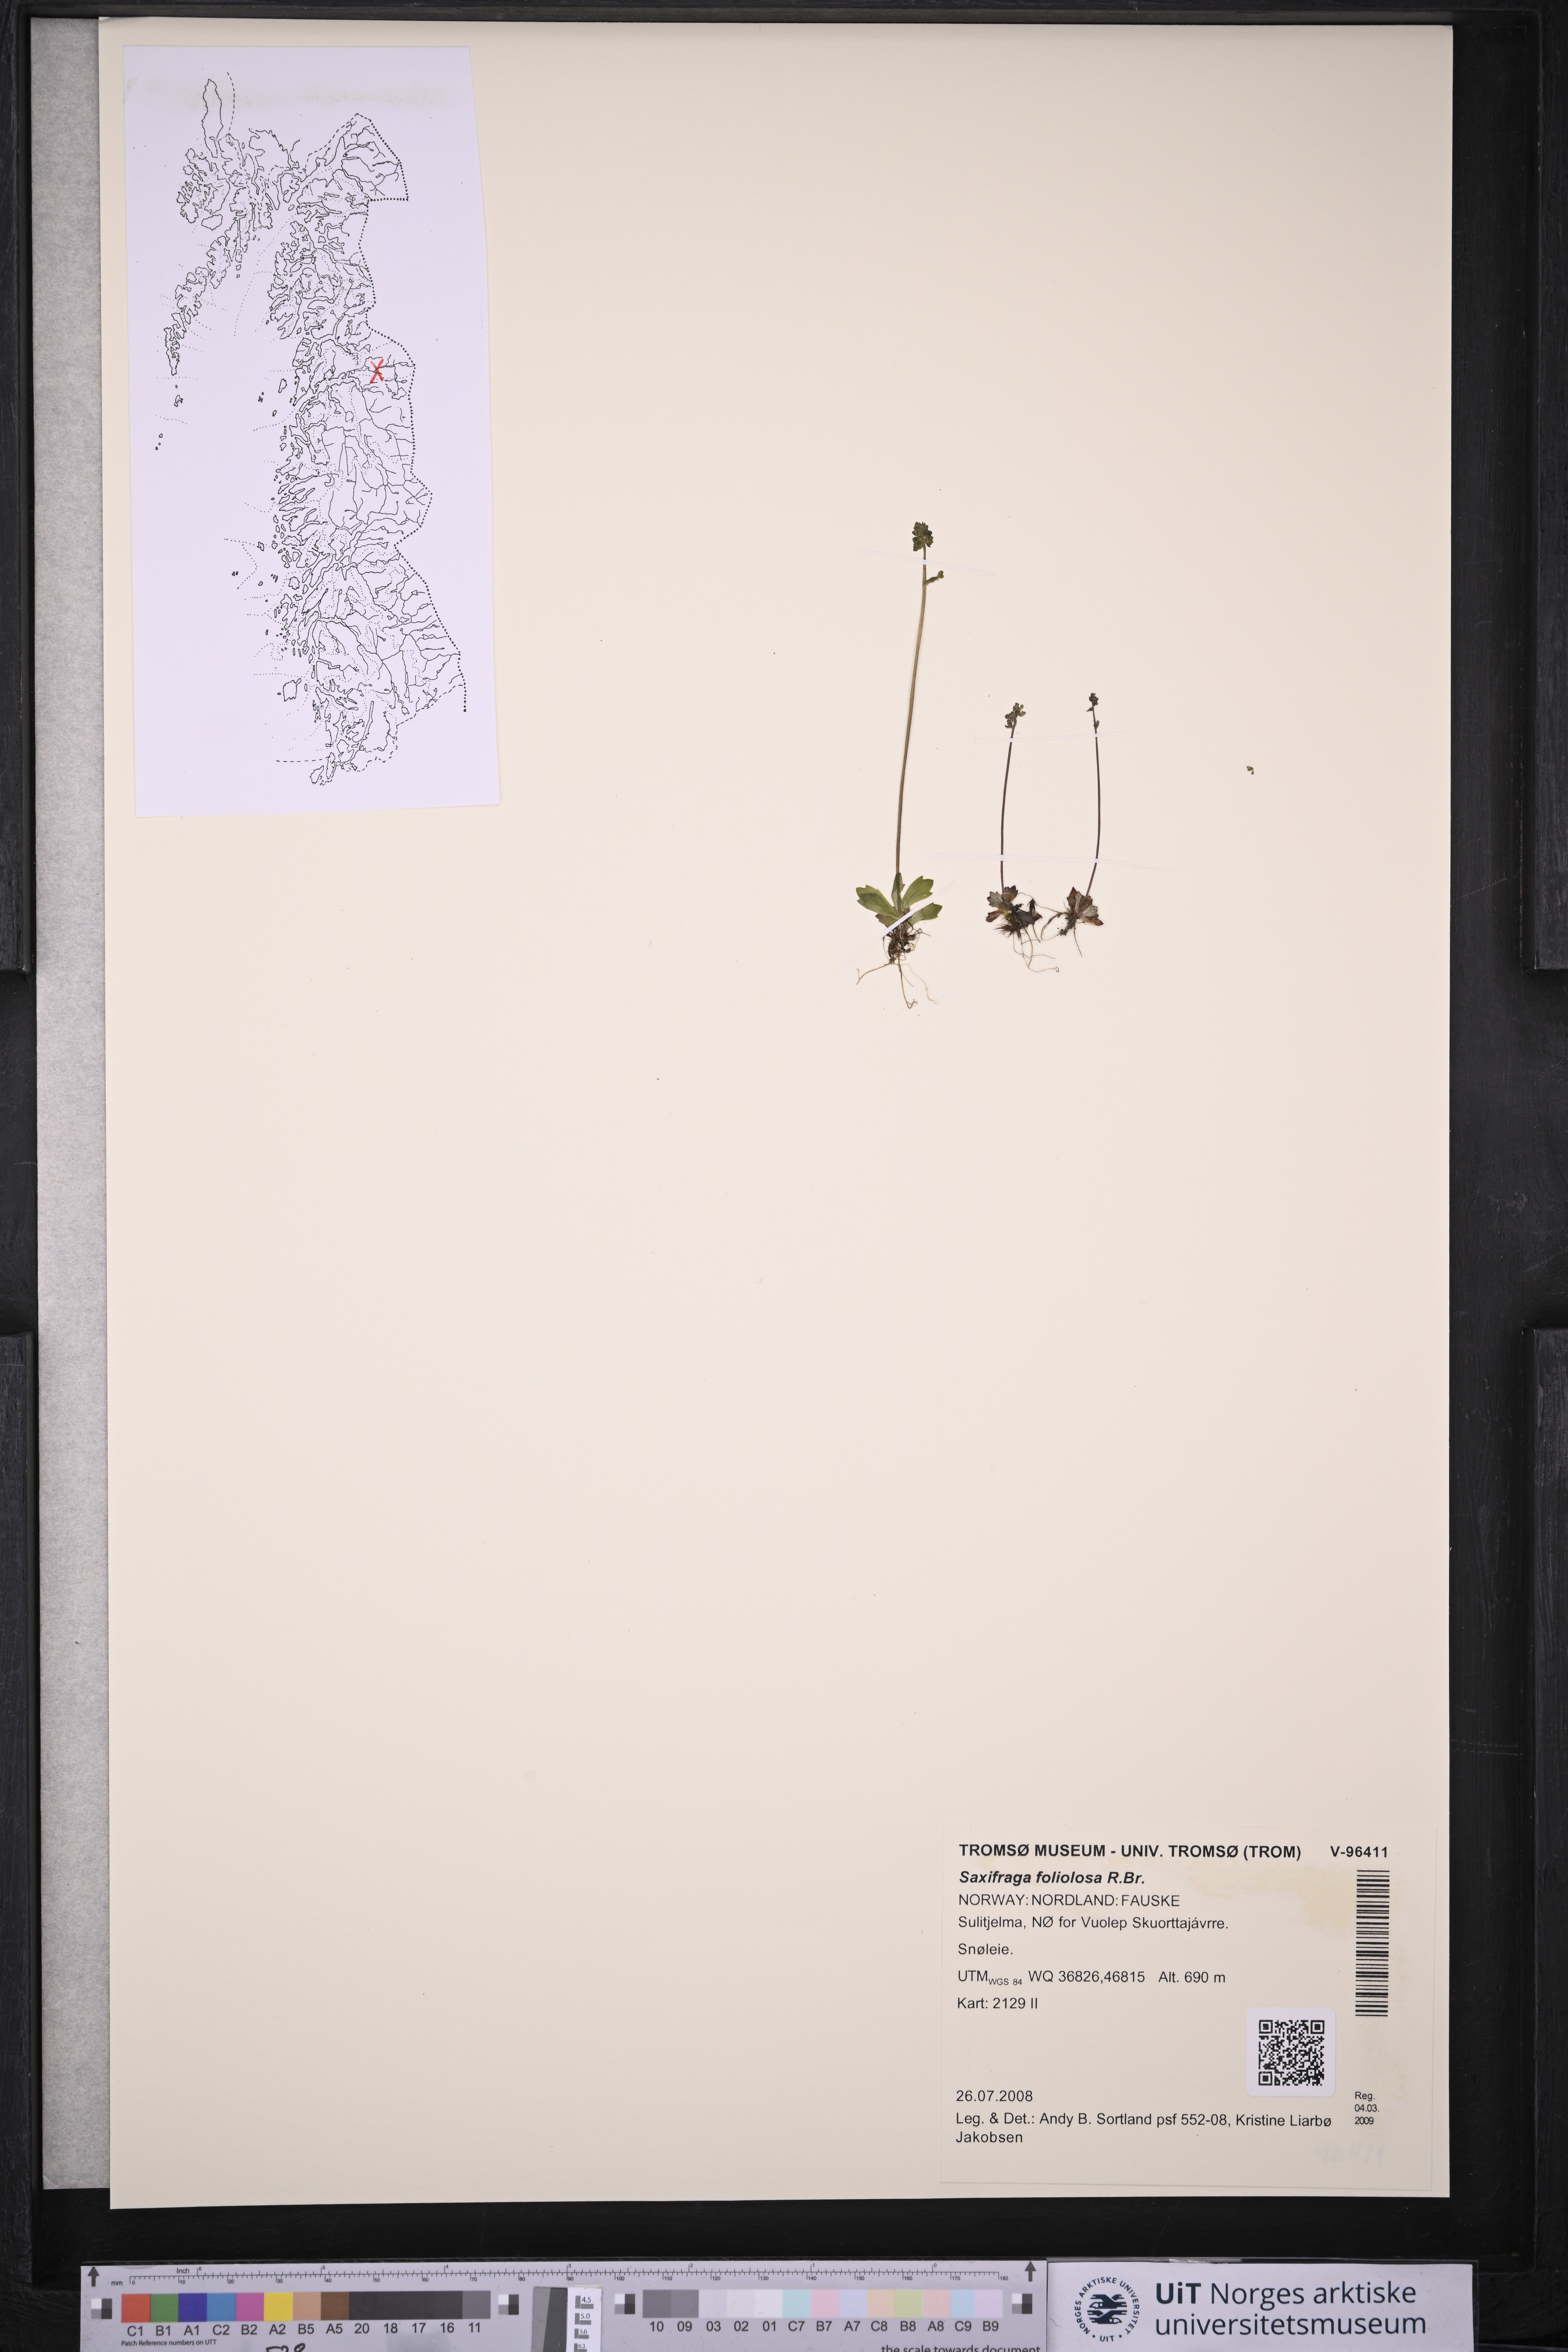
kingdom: Plantae
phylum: Tracheophyta
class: Magnoliopsida
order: Saxifragales
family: Saxifragaceae
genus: Micranthes
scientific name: Micranthes foliolosa
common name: Leafystem saxifrage
